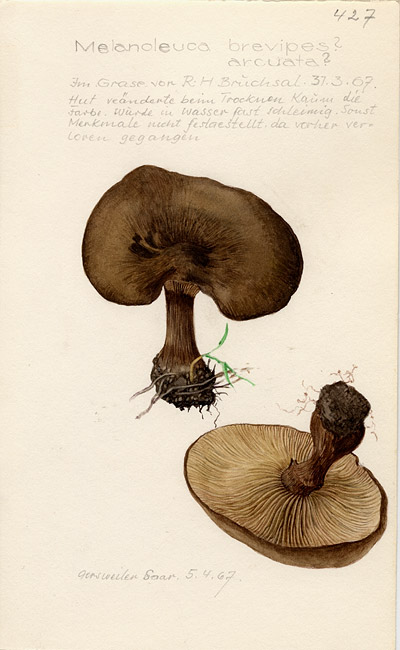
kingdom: Fungi
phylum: Basidiomycota
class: Agaricomycetes
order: Agaricales
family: Tricholomataceae
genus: Melanoleuca
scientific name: Melanoleuca arcuata
